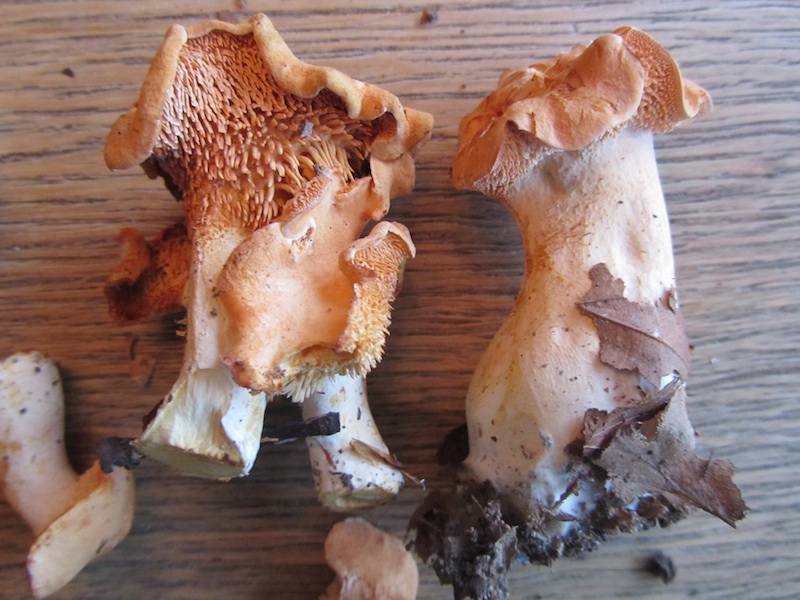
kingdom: Fungi
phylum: Basidiomycota
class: Agaricomycetes
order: Cantharellales
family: Hydnaceae
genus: Hydnum
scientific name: Hydnum ellipsosporum
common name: tandet pigsvamp
